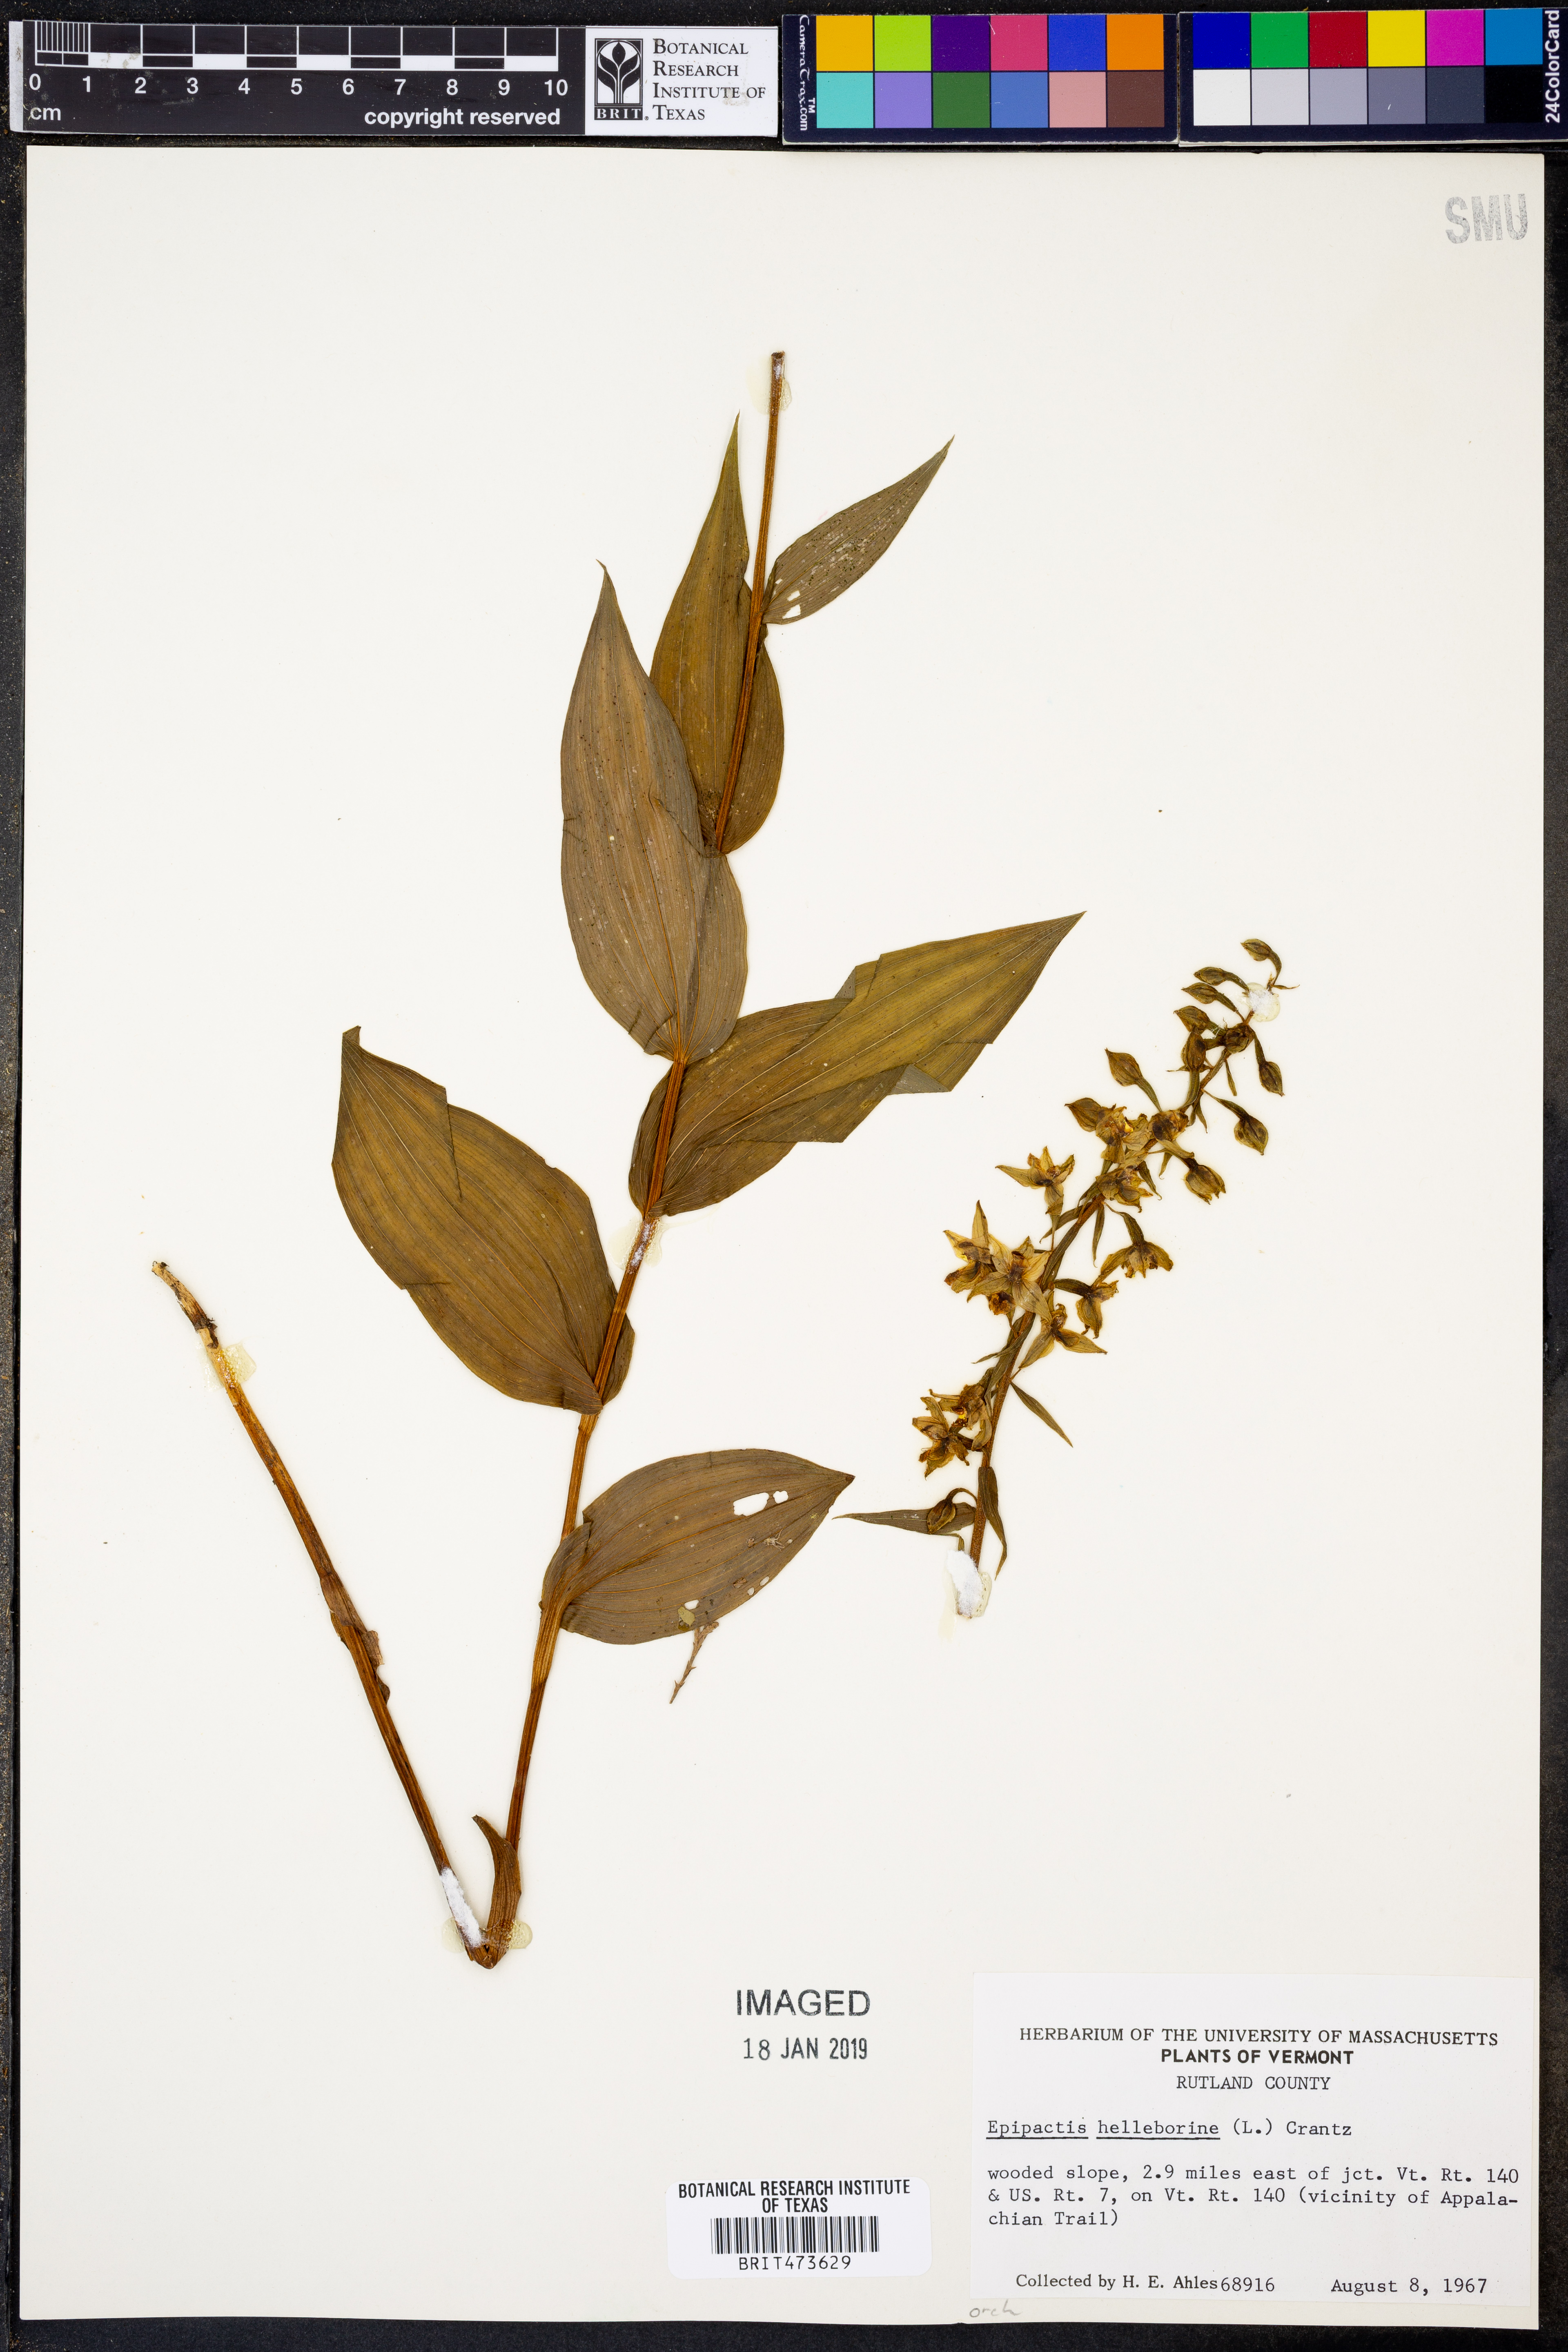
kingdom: Plantae
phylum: Tracheophyta
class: Liliopsida
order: Asparagales
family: Orchidaceae
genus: Epipactis
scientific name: Epipactis helleborine
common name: Broad-leaved helleborine
